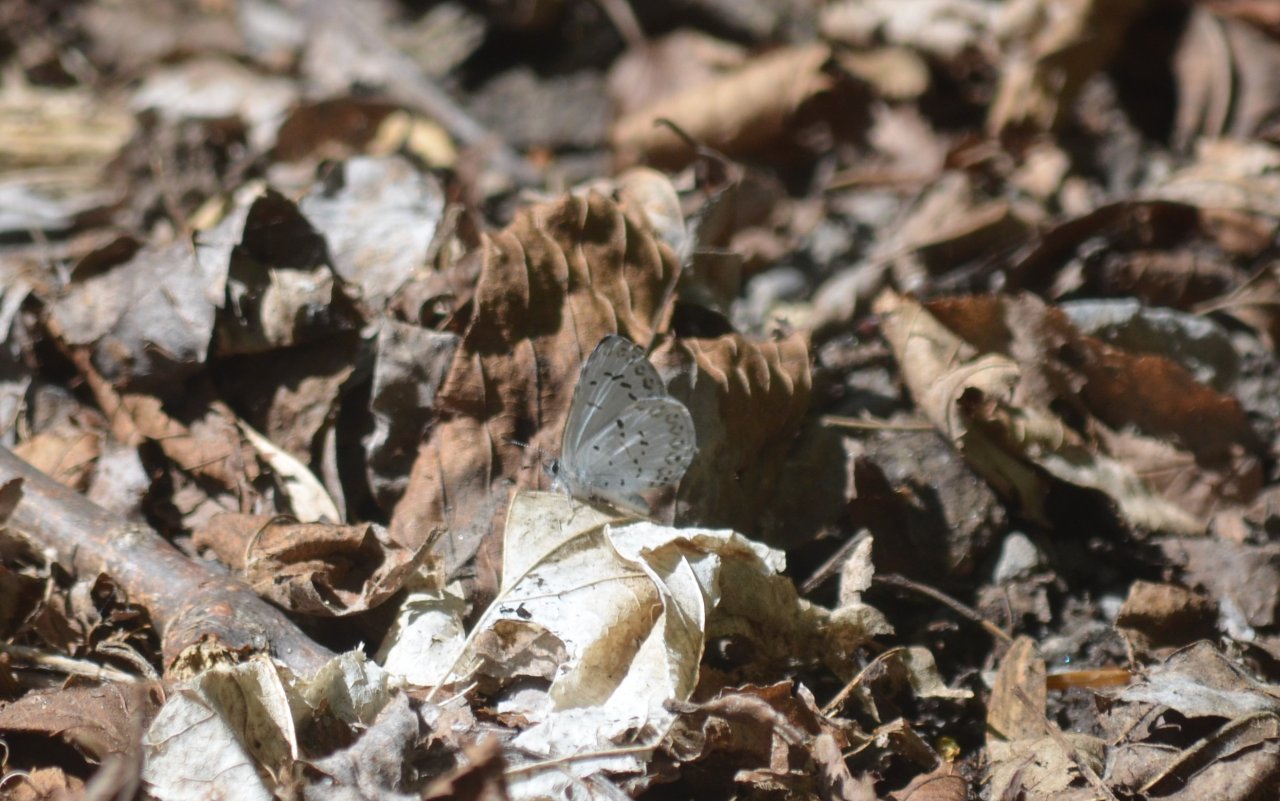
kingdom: Animalia
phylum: Arthropoda
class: Insecta
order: Lepidoptera
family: Lycaenidae
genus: Celastrina
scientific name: Celastrina
